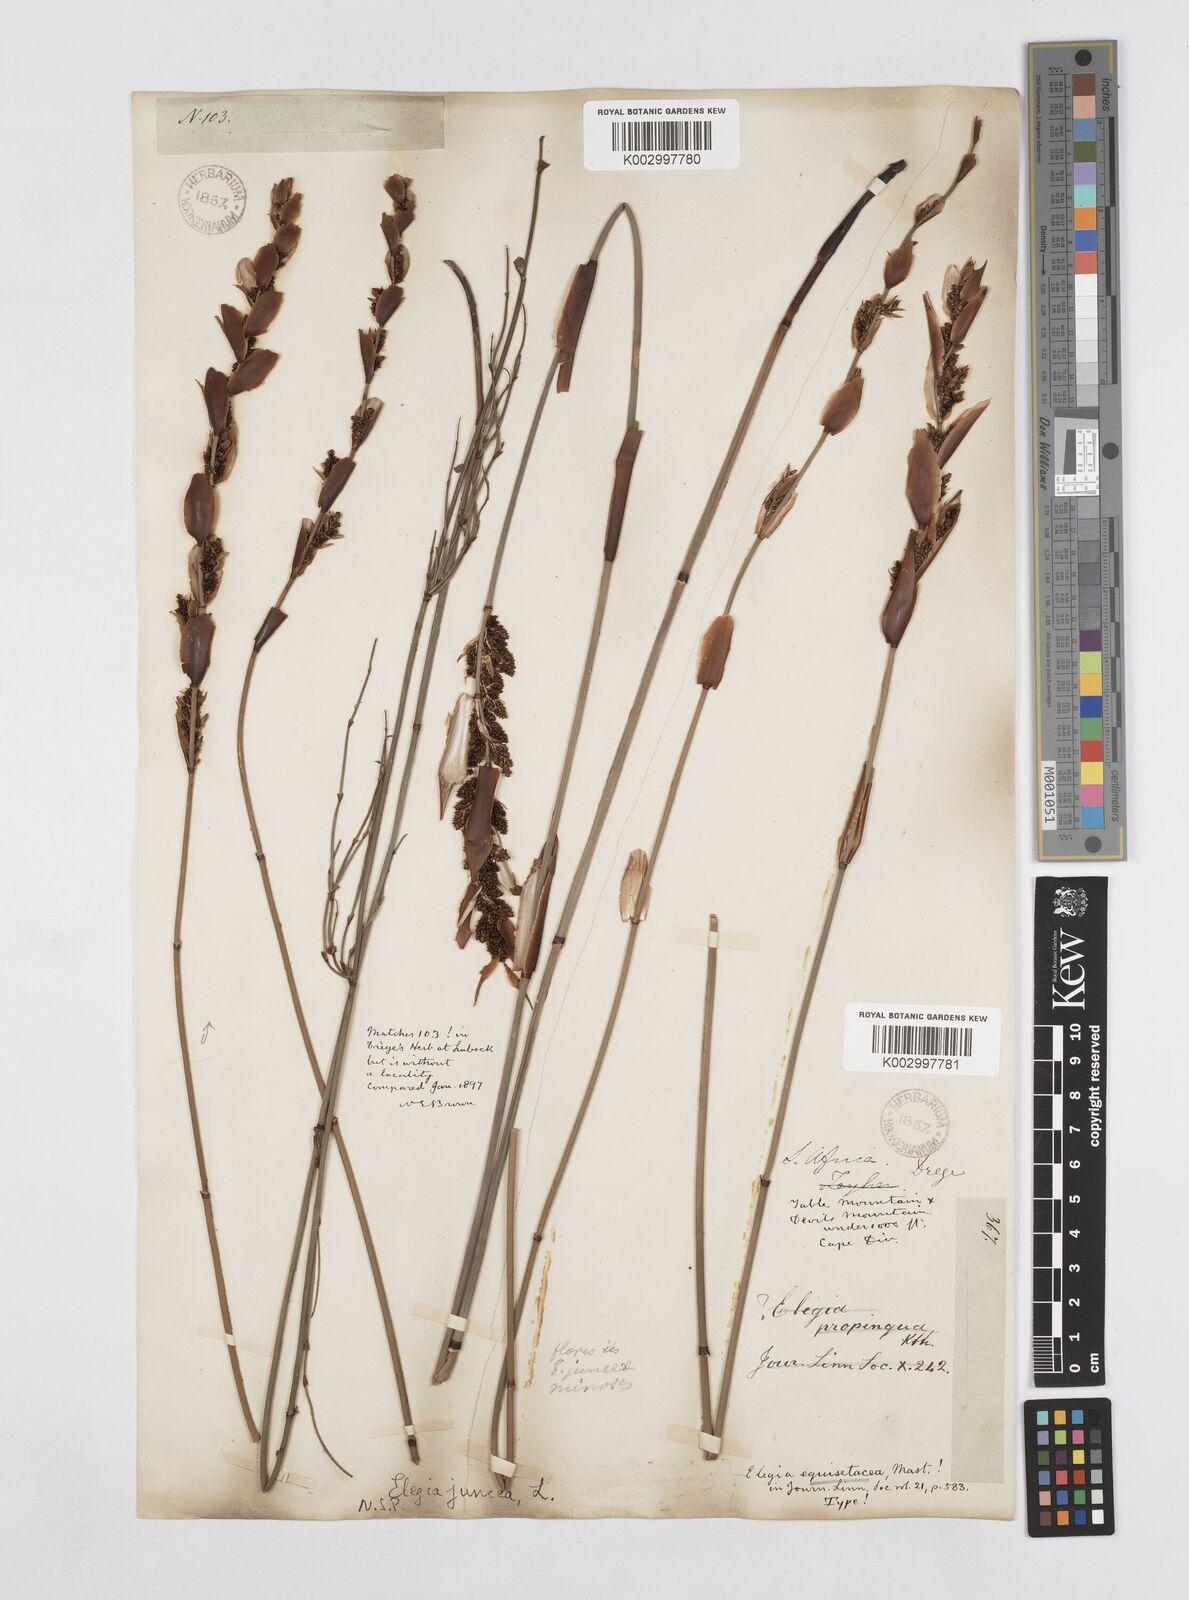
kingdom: Plantae
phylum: Tracheophyta
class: Liliopsida
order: Poales
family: Restionaceae
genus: Elegia
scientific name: Elegia juncea
